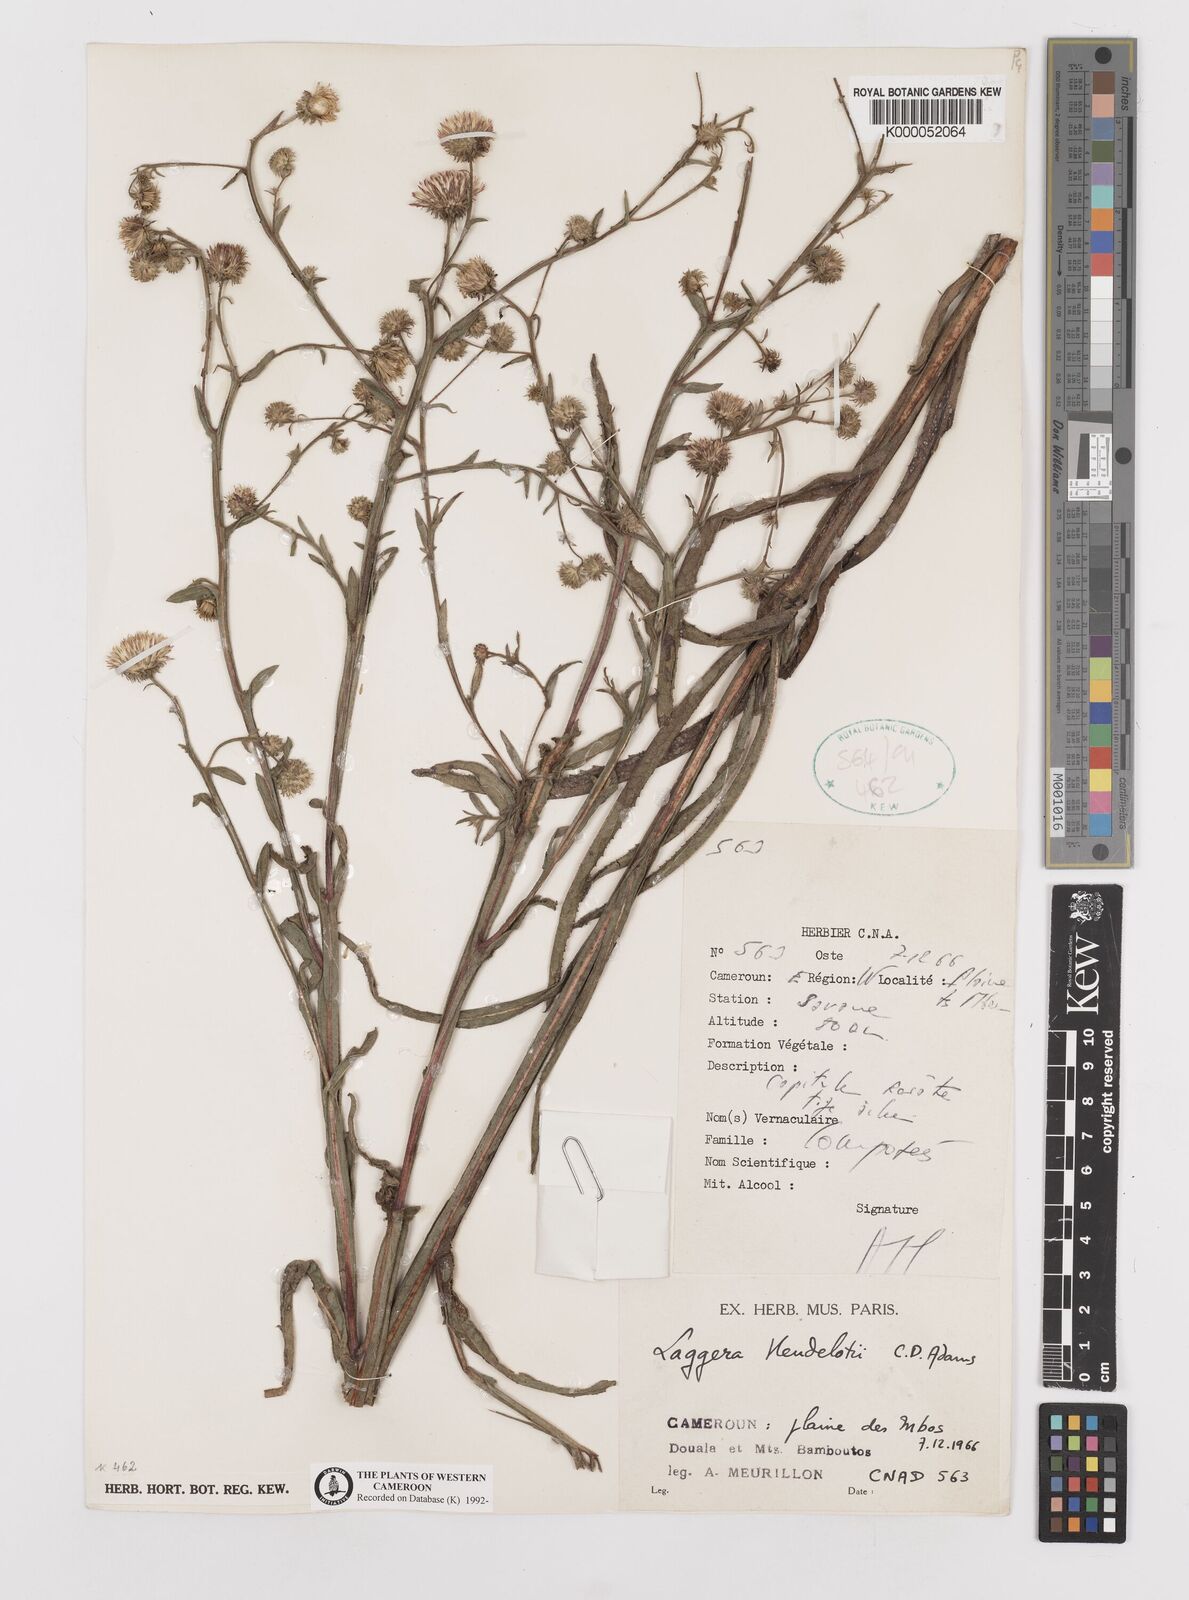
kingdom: Plantae
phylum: Tracheophyta
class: Magnoliopsida
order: Asterales
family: Asteraceae
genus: Laggera
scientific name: Laggera heudelotii
